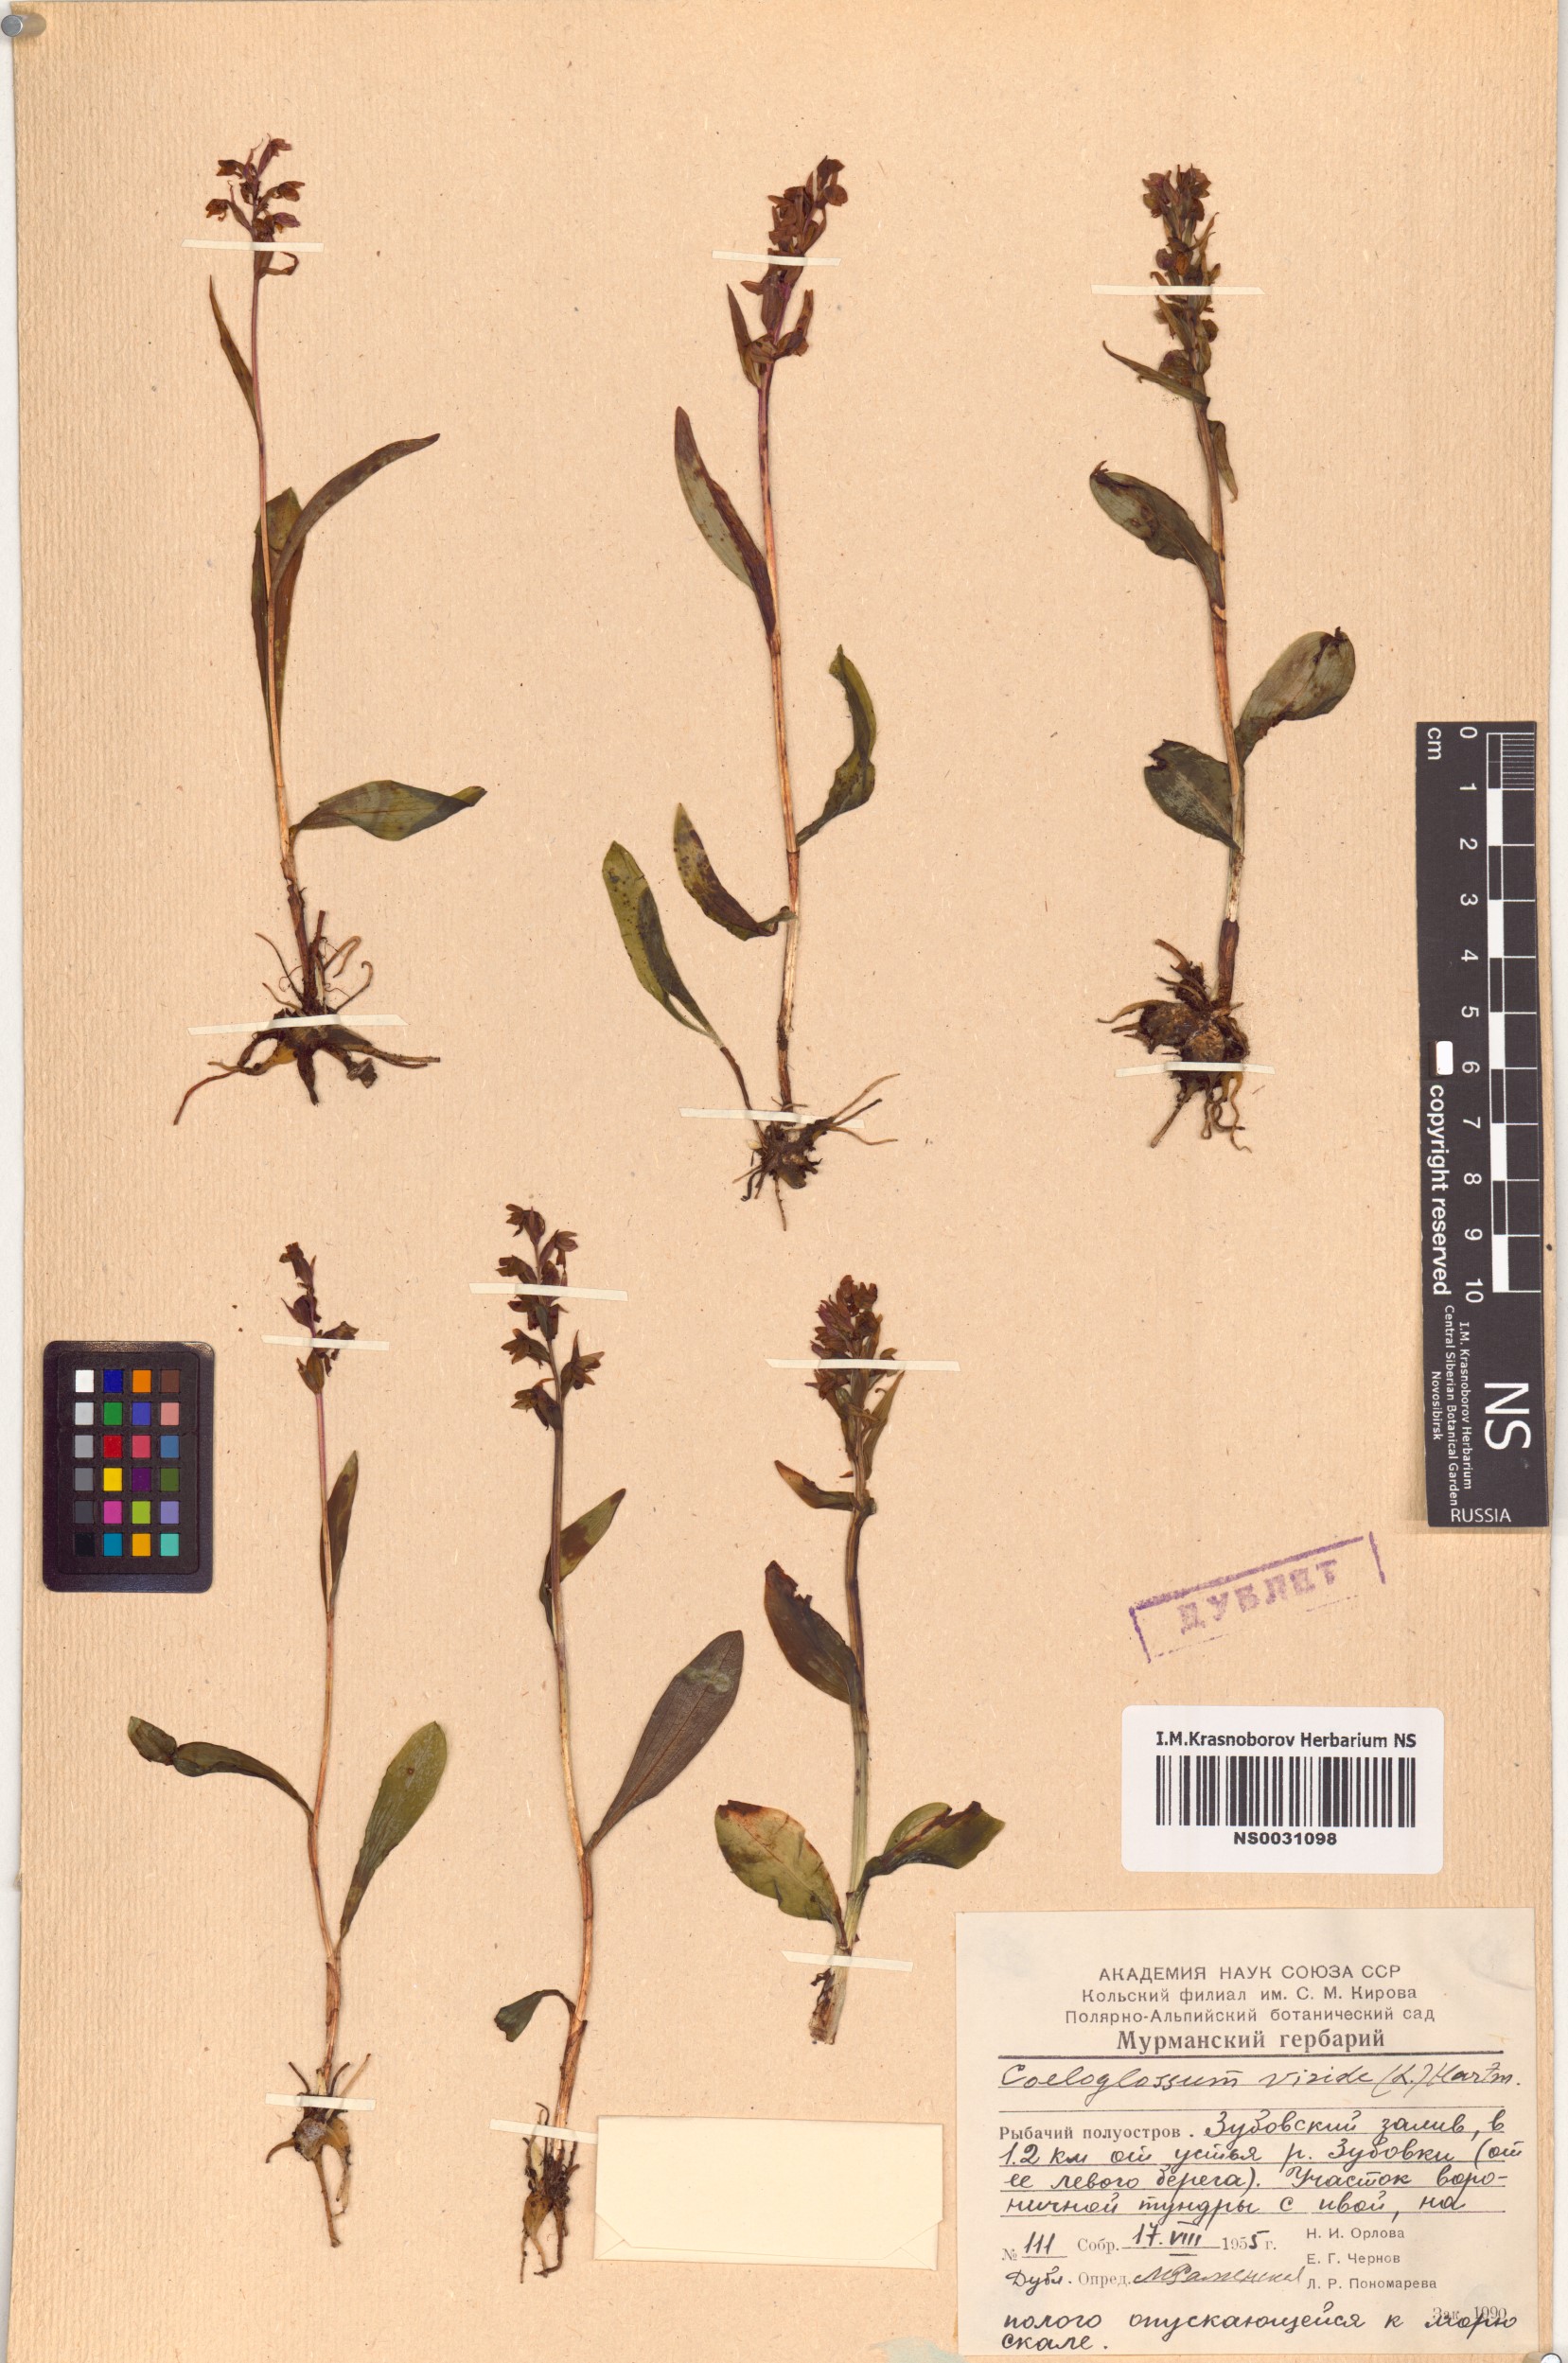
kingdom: Plantae
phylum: Tracheophyta
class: Liliopsida
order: Asparagales
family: Orchidaceae
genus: Dactylorhiza
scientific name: Dactylorhiza viridis
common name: Longbract frog orchid
